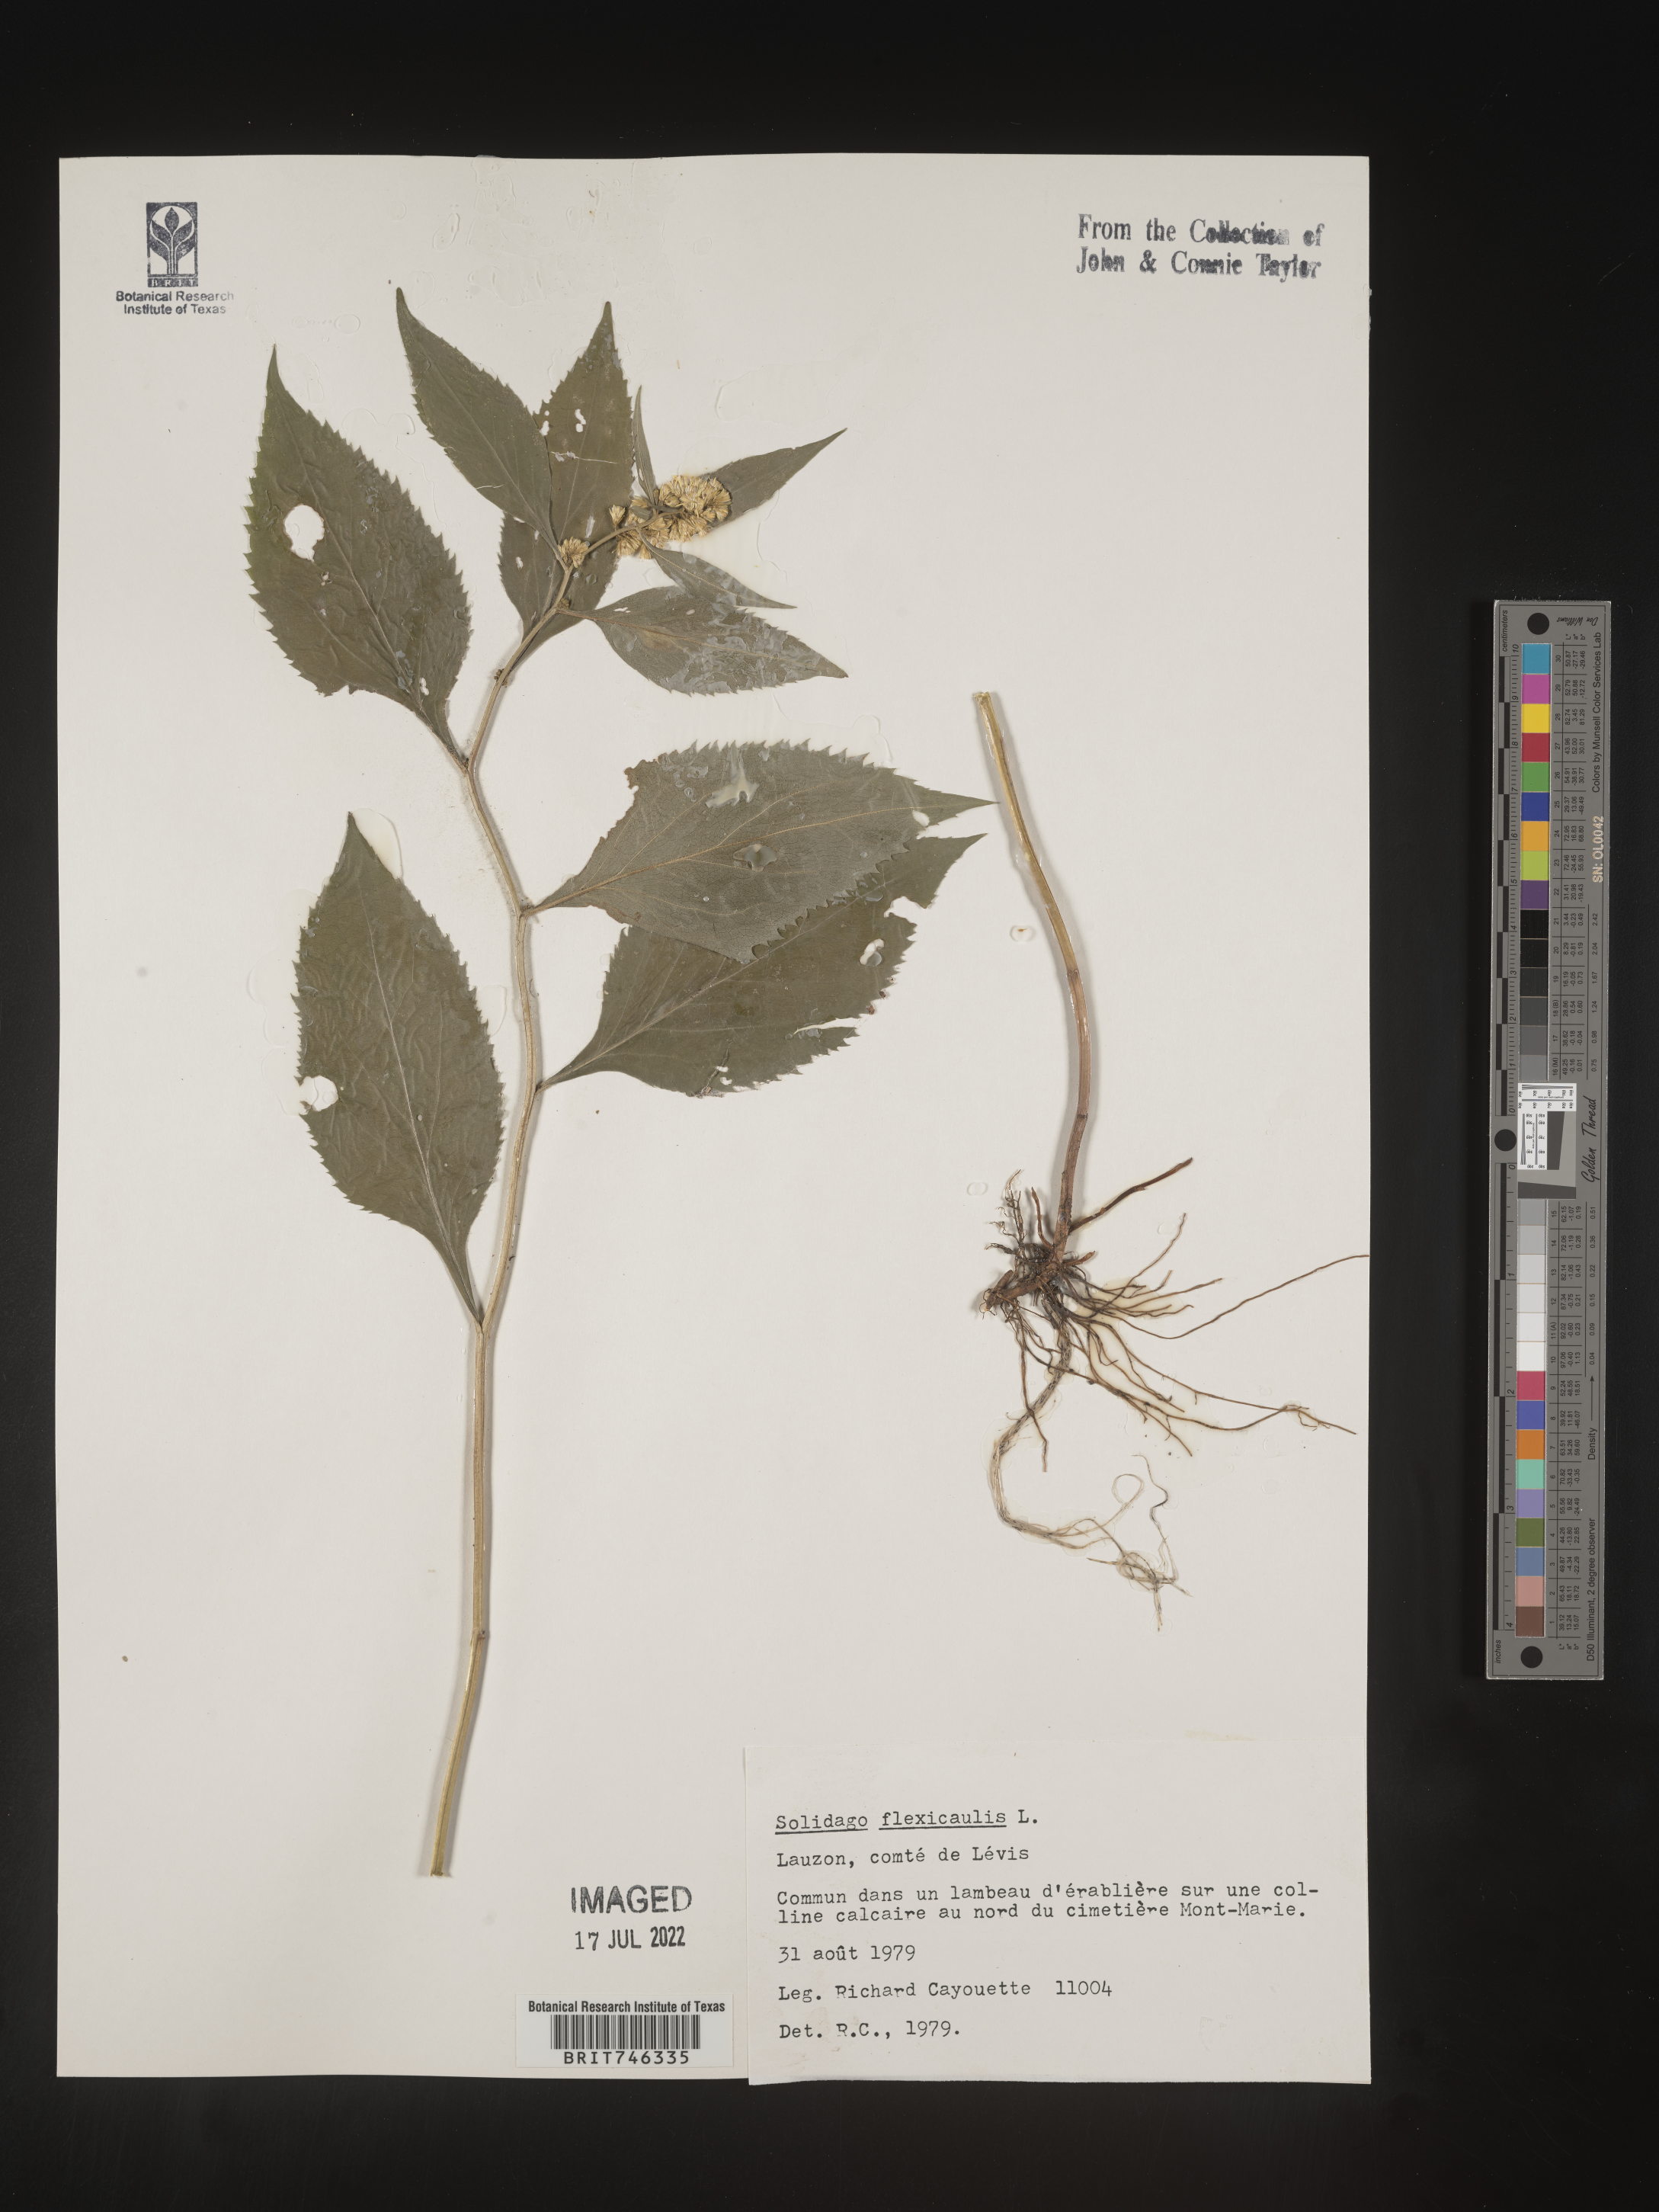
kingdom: Plantae
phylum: Tracheophyta
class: Magnoliopsida
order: Asterales
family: Asteraceae
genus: Solidago
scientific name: Solidago flexicaulis
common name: Zig-zag goldenrod
